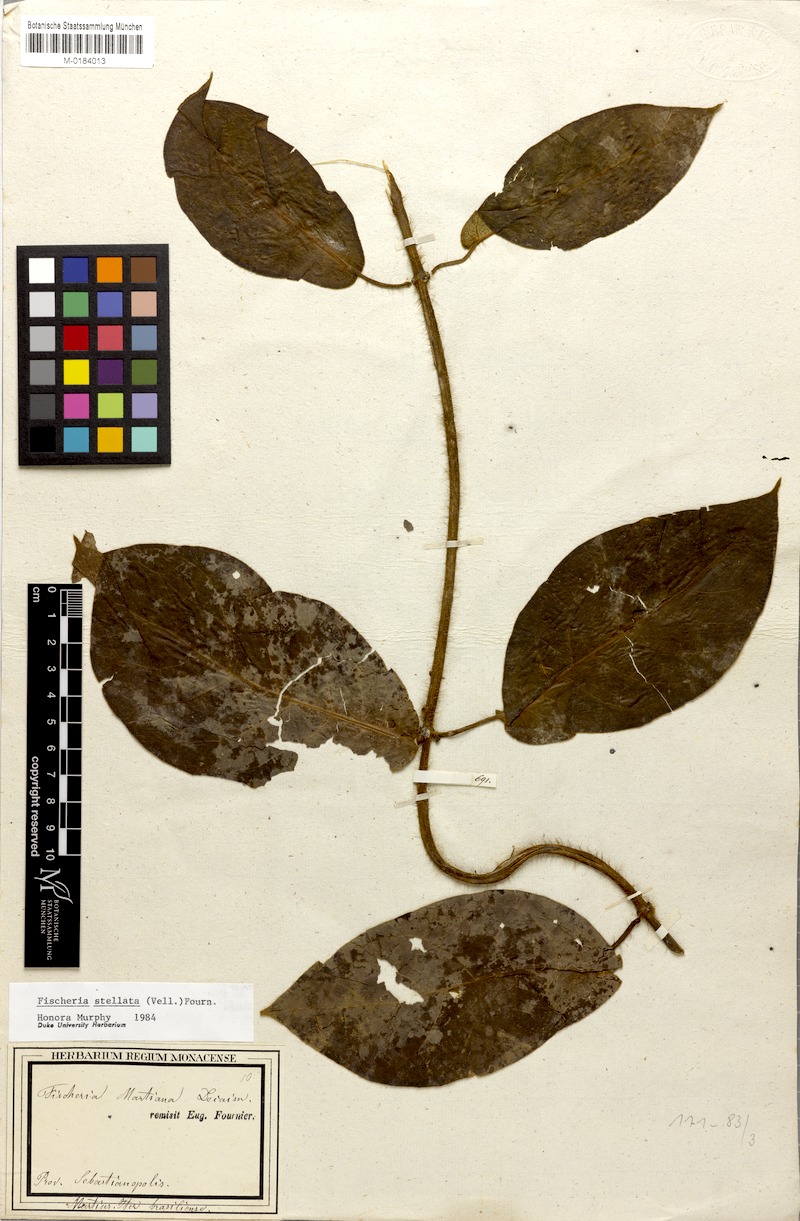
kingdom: Plantae
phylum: Tracheophyta
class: Magnoliopsida
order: Gentianales
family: Apocynaceae
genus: Fischeria
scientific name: Fischeria stellata
